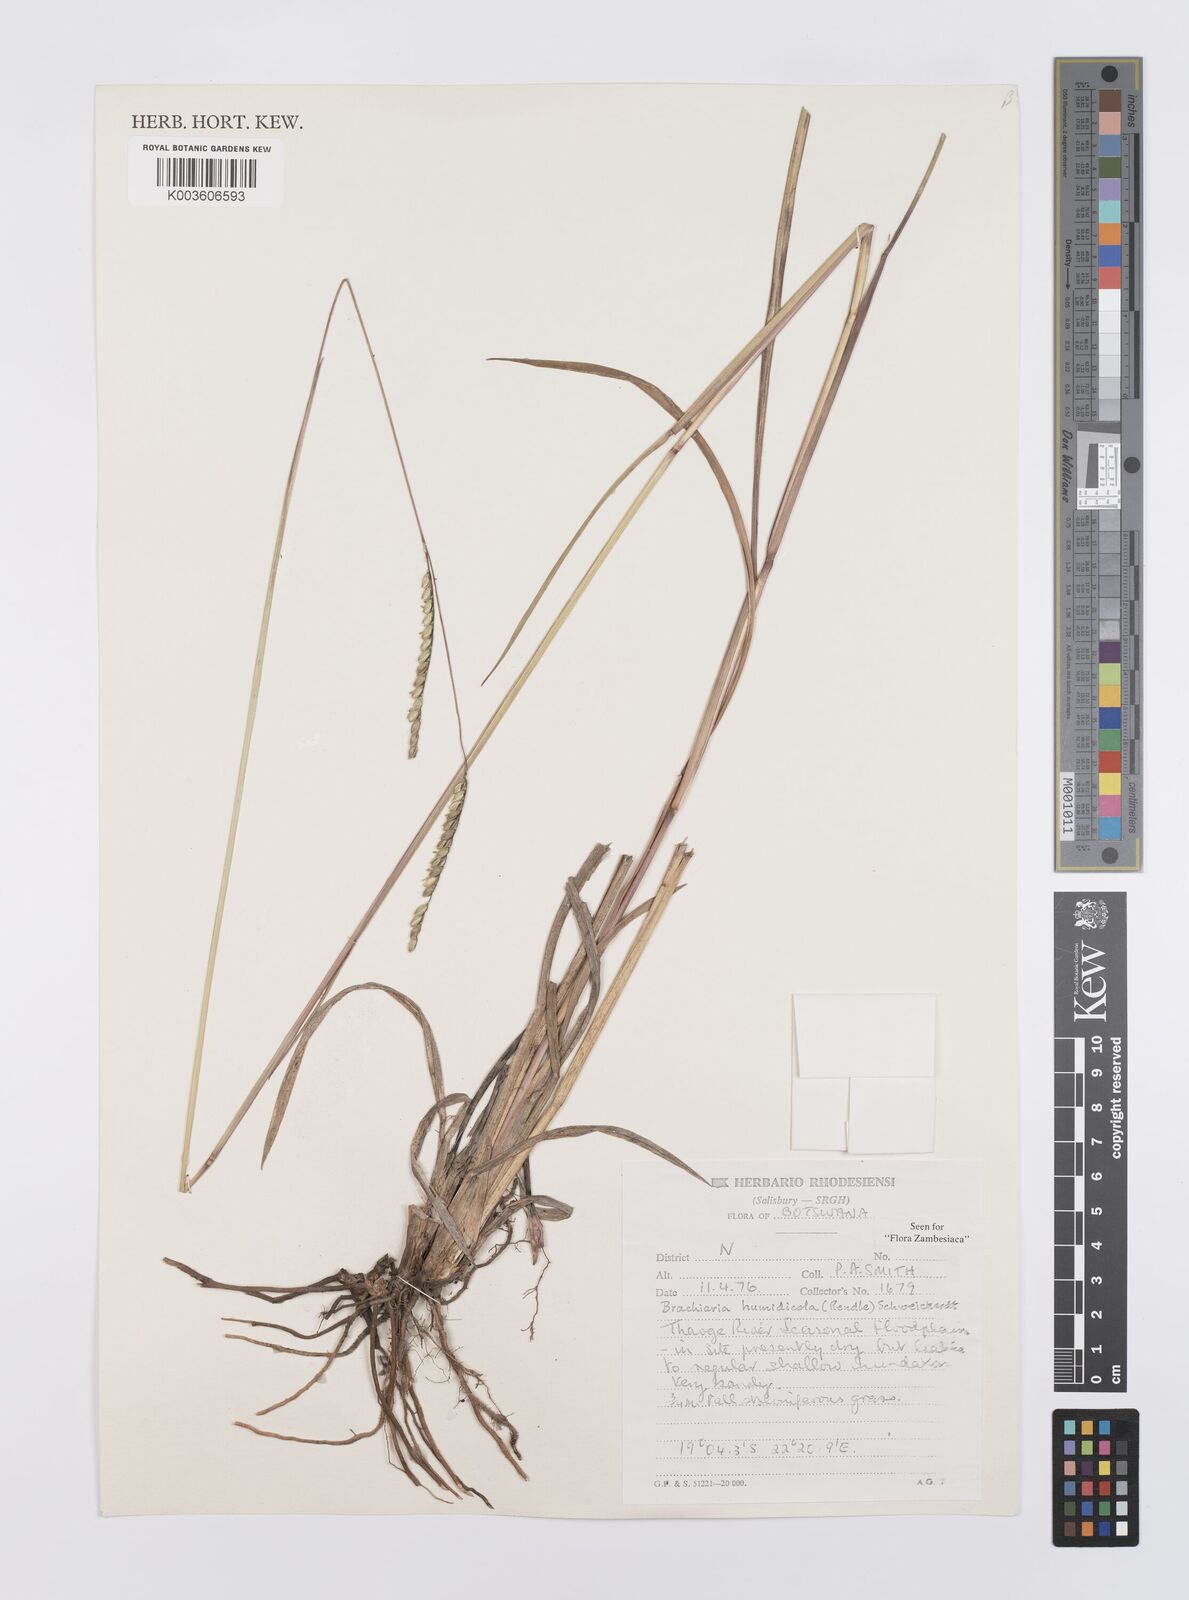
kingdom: Plantae
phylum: Tracheophyta
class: Liliopsida
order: Poales
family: Poaceae
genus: Urochloa
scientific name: Urochloa dictyoneura
